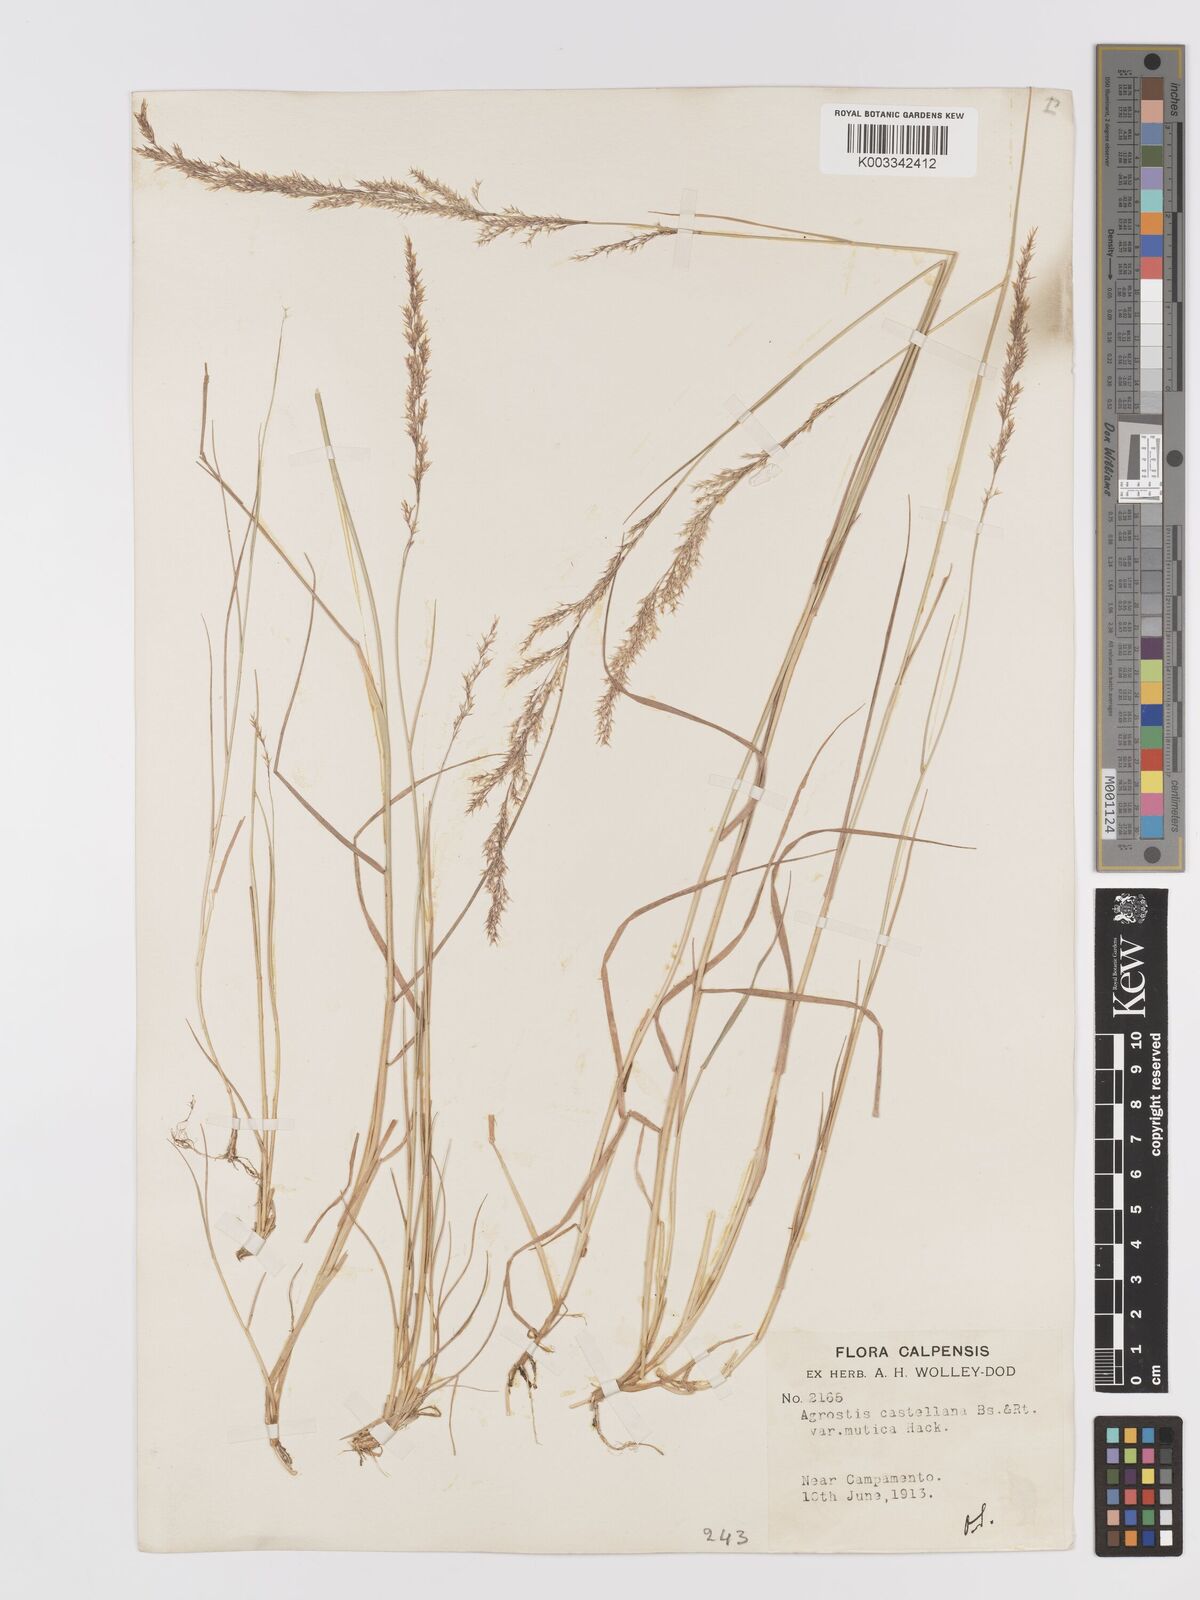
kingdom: Plantae
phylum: Tracheophyta
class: Liliopsida
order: Poales
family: Poaceae
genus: Agrostis
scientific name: Agrostis castellana
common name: Highland bent
